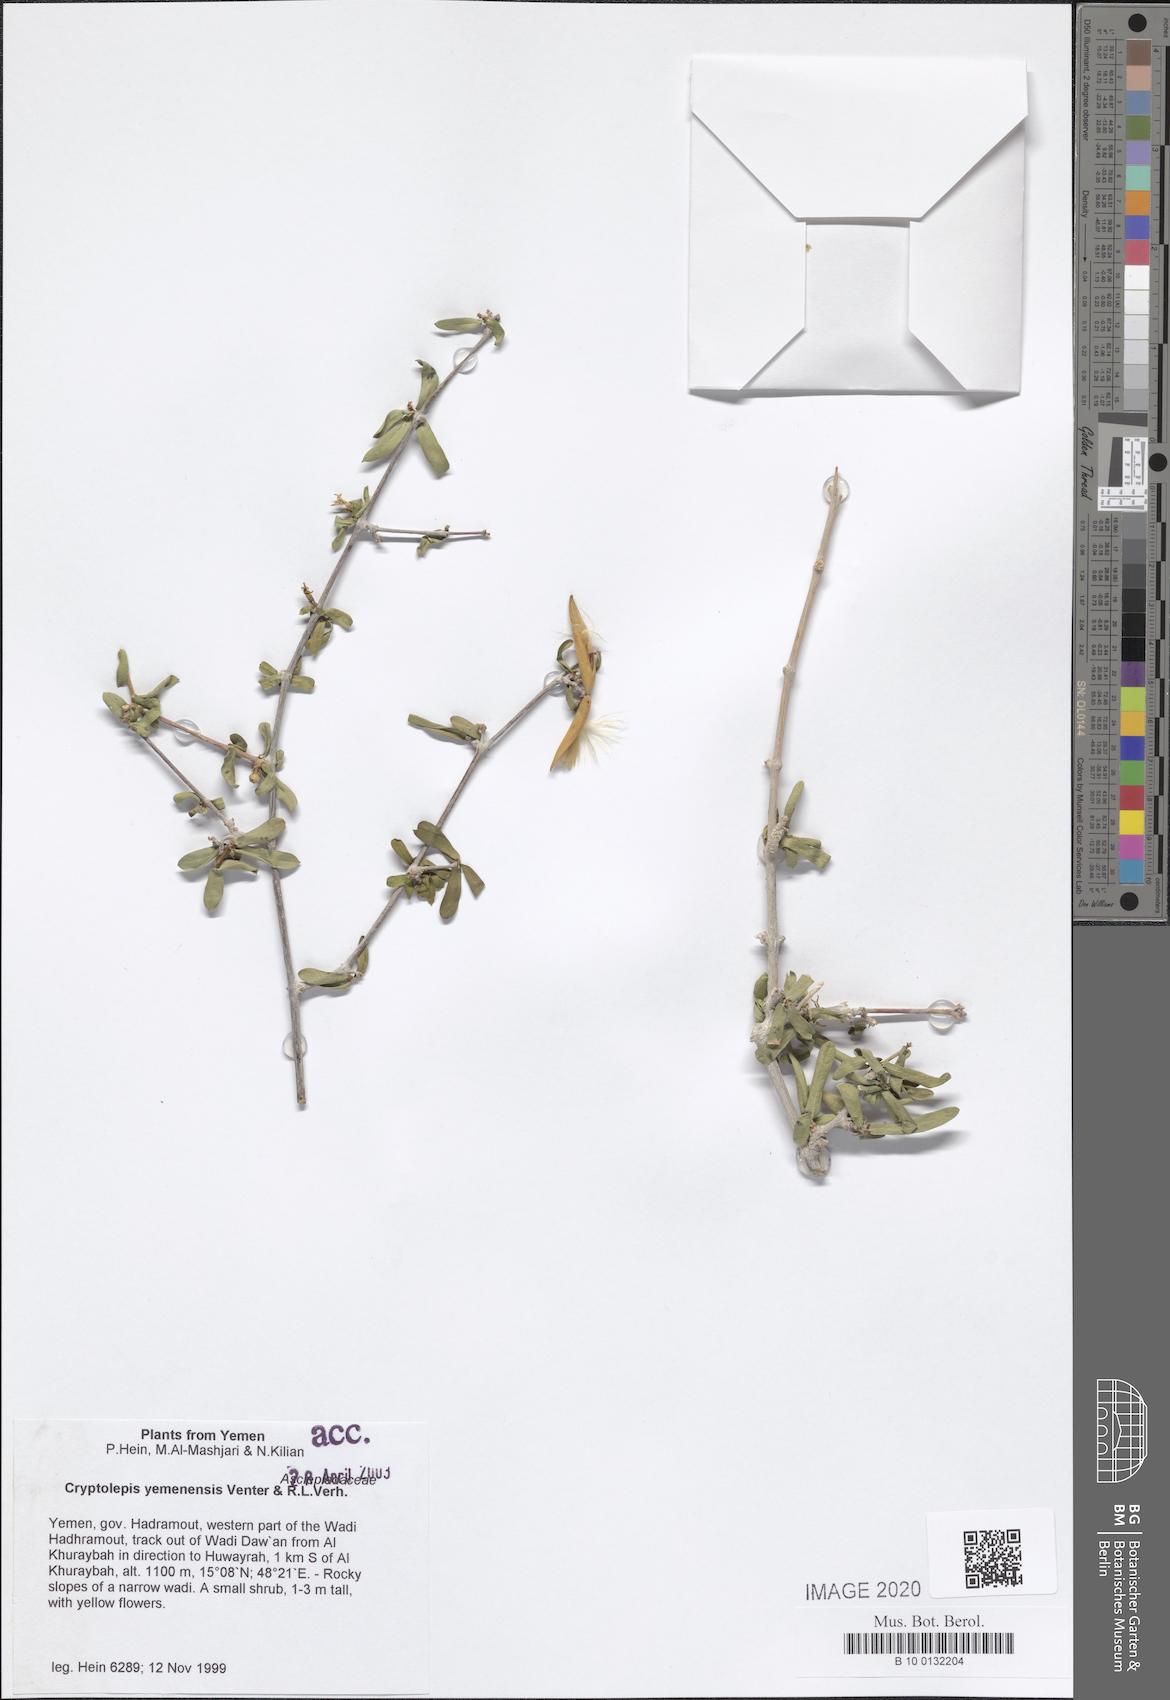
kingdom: Plantae
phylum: Tracheophyta
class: Magnoliopsida
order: Gentianales
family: Apocynaceae
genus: Cryptolepis
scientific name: Cryptolepis yemenensis
